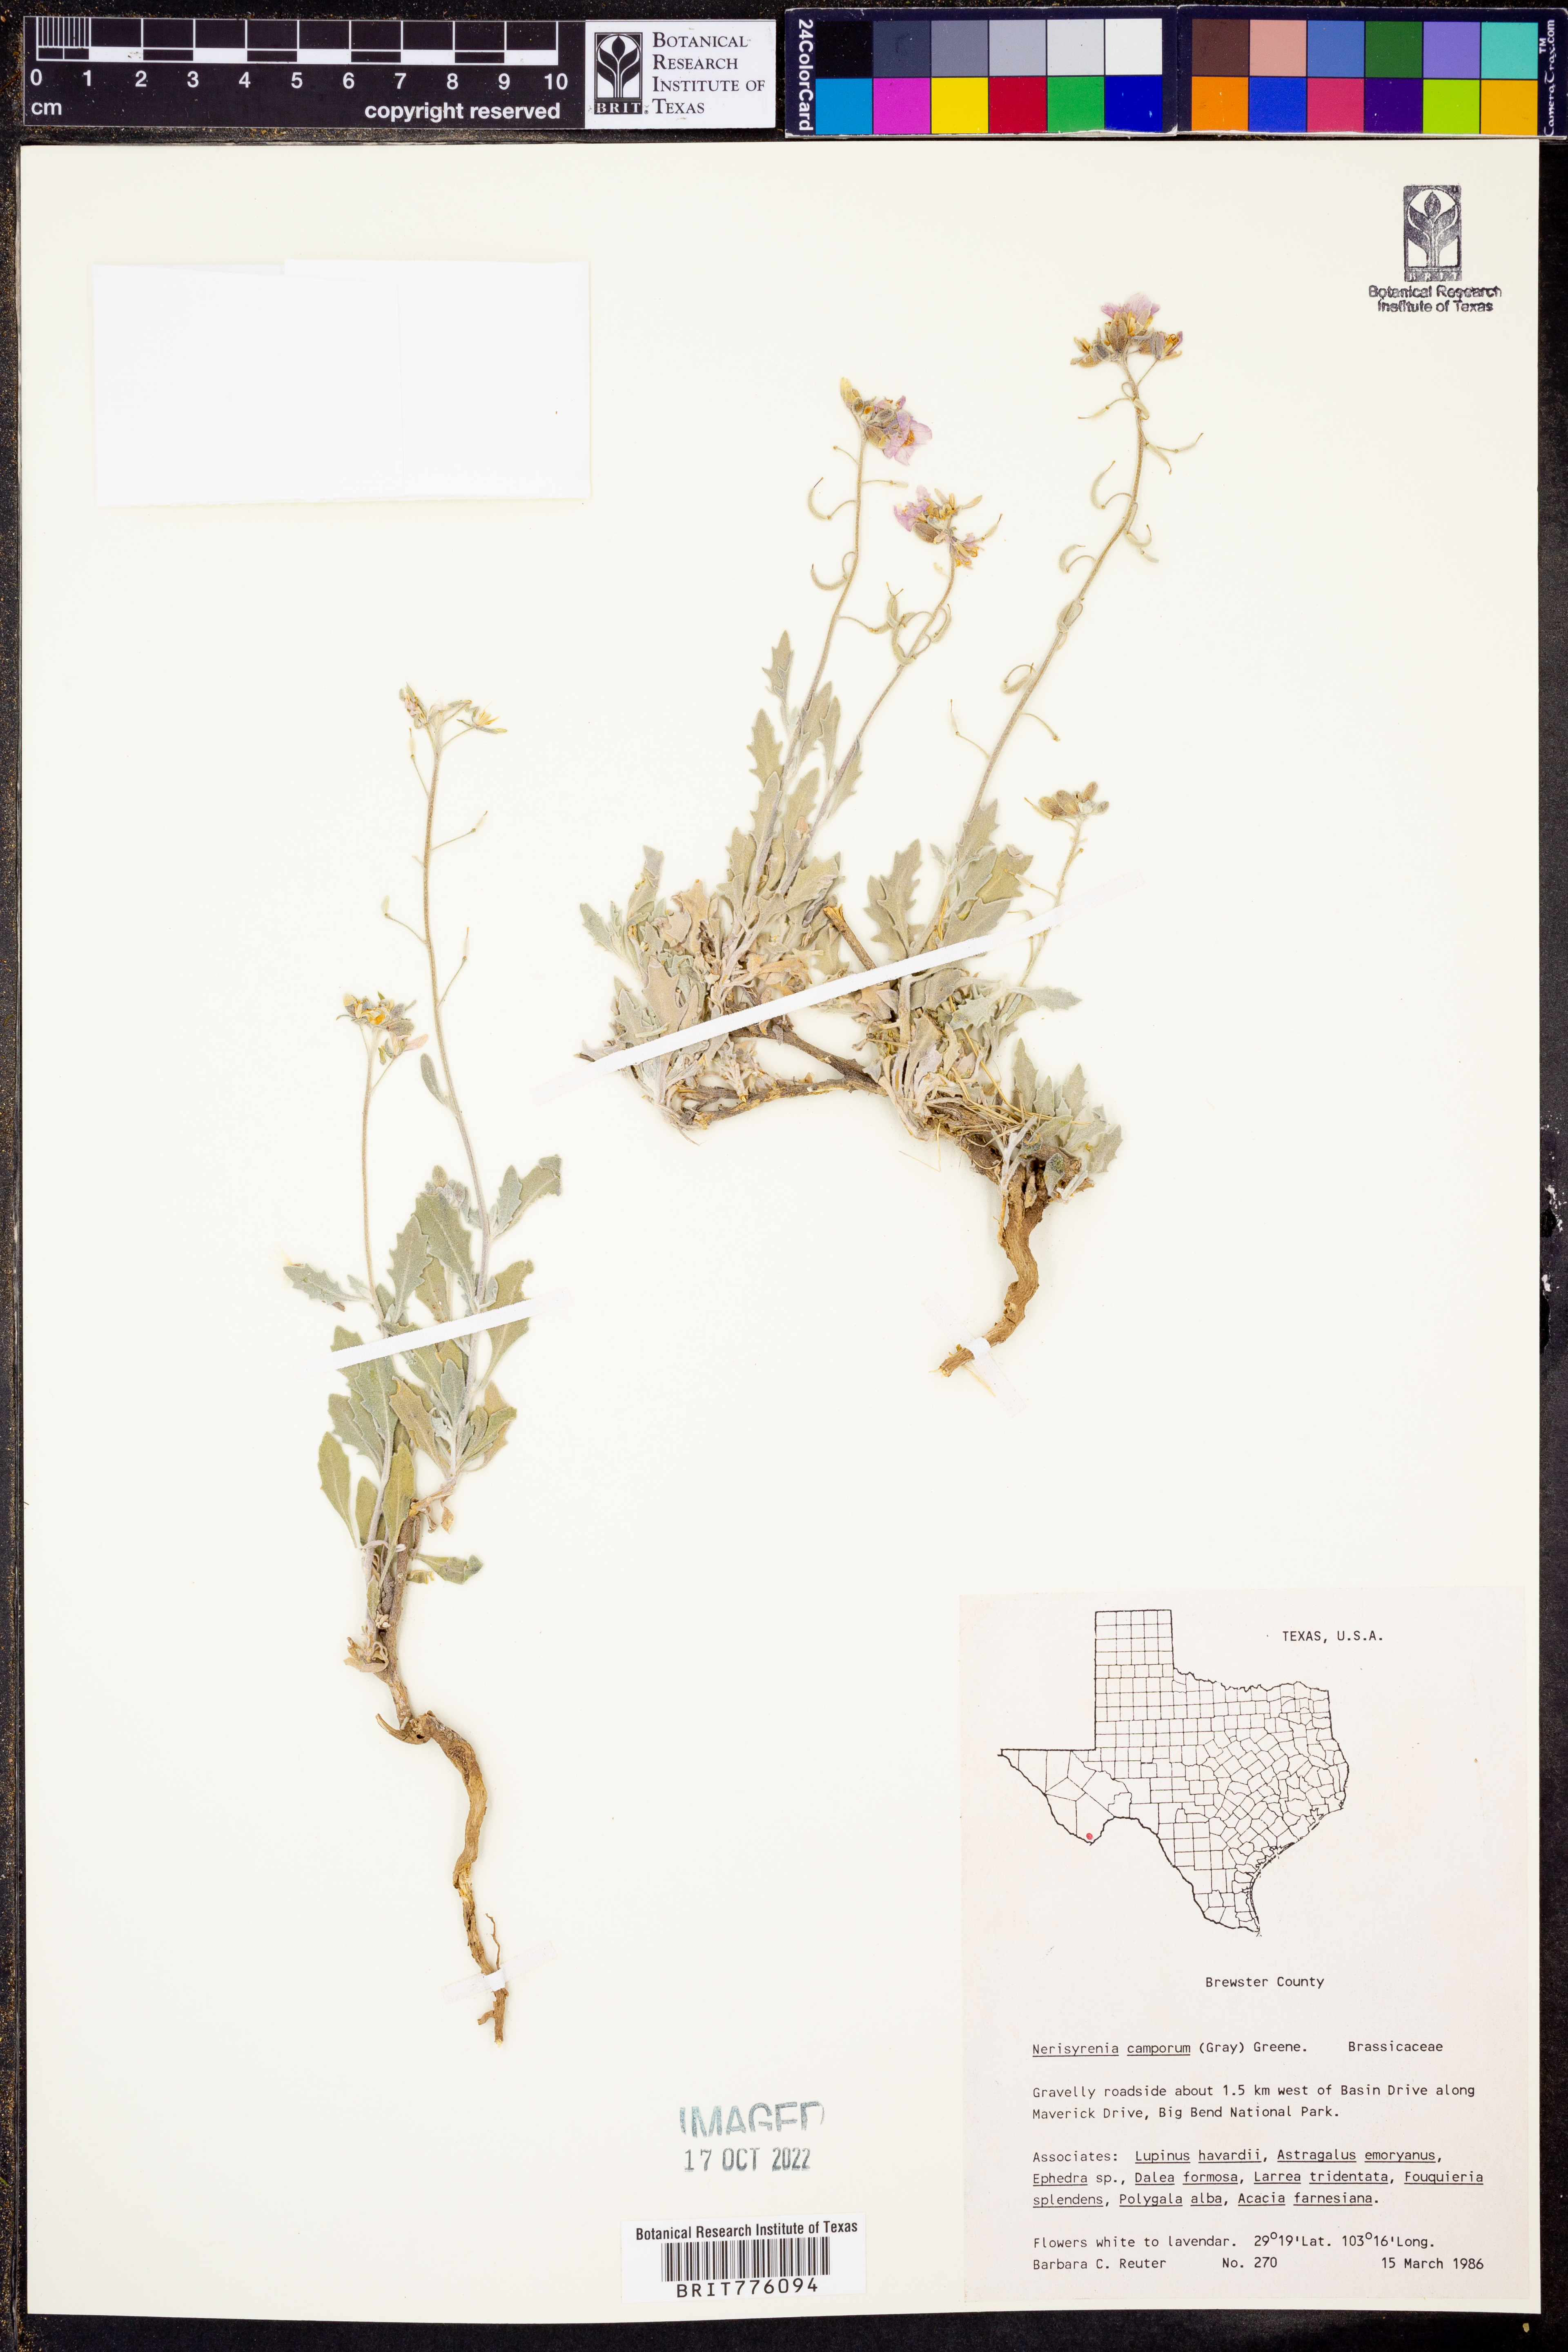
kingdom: Plantae
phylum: Tracheophyta
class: Magnoliopsida
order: Brassicales
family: Brassicaceae
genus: Nerisyrenia
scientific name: Nerisyrenia camporum
